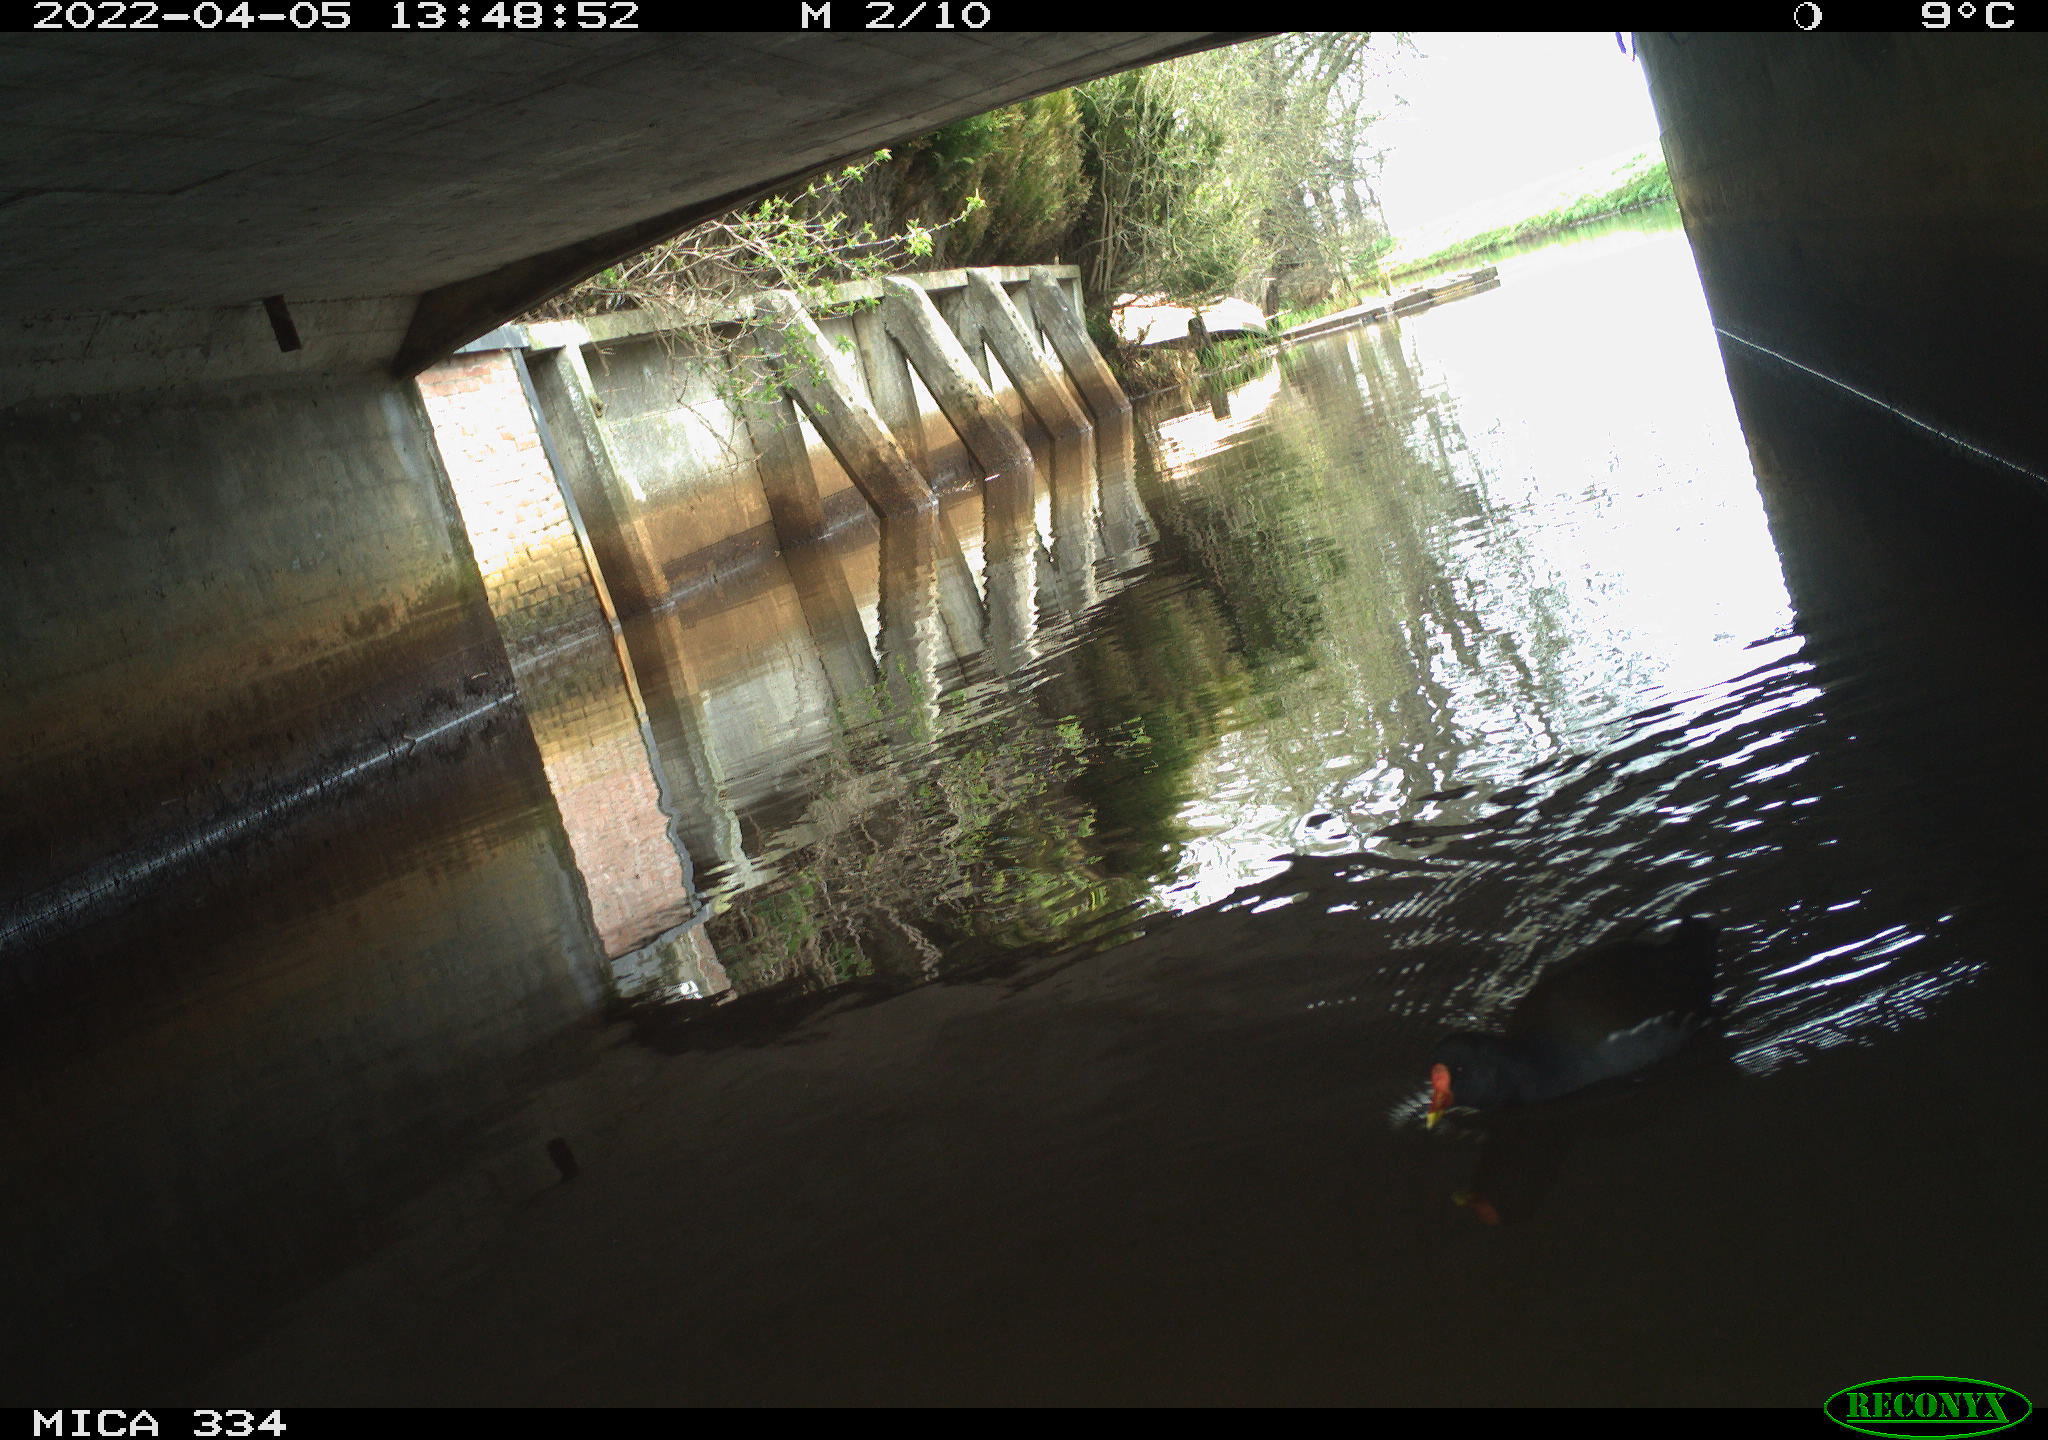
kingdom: Animalia
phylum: Chordata
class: Aves
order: Gruiformes
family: Rallidae
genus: Gallinula
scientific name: Gallinula chloropus
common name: Common moorhen
